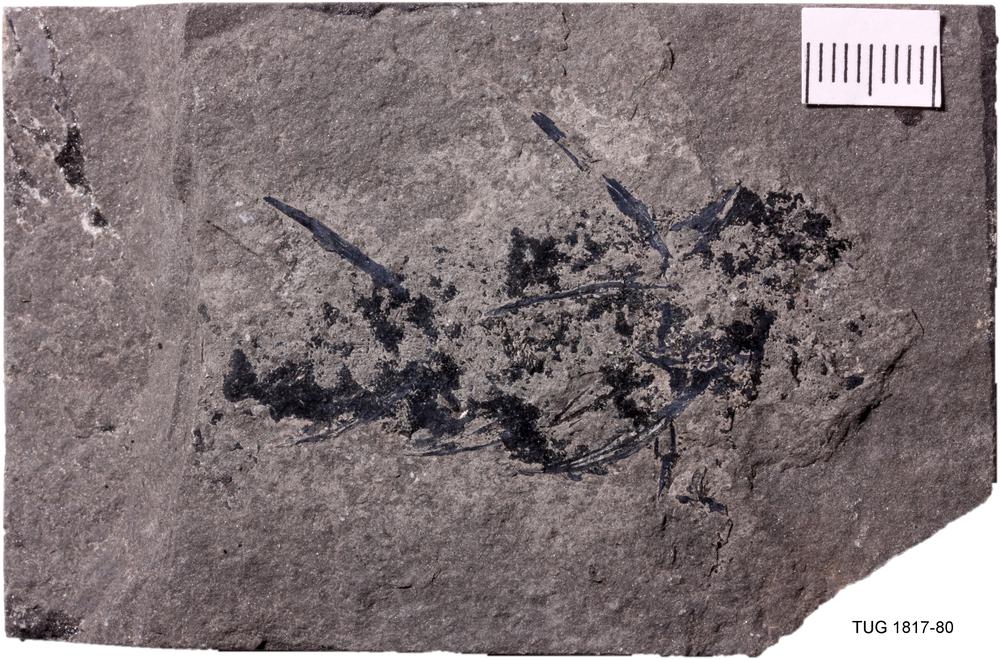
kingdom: Animalia
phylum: Chordata
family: Diplacanthidae
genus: Diplacanthus
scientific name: Diplacanthus crassisimus
